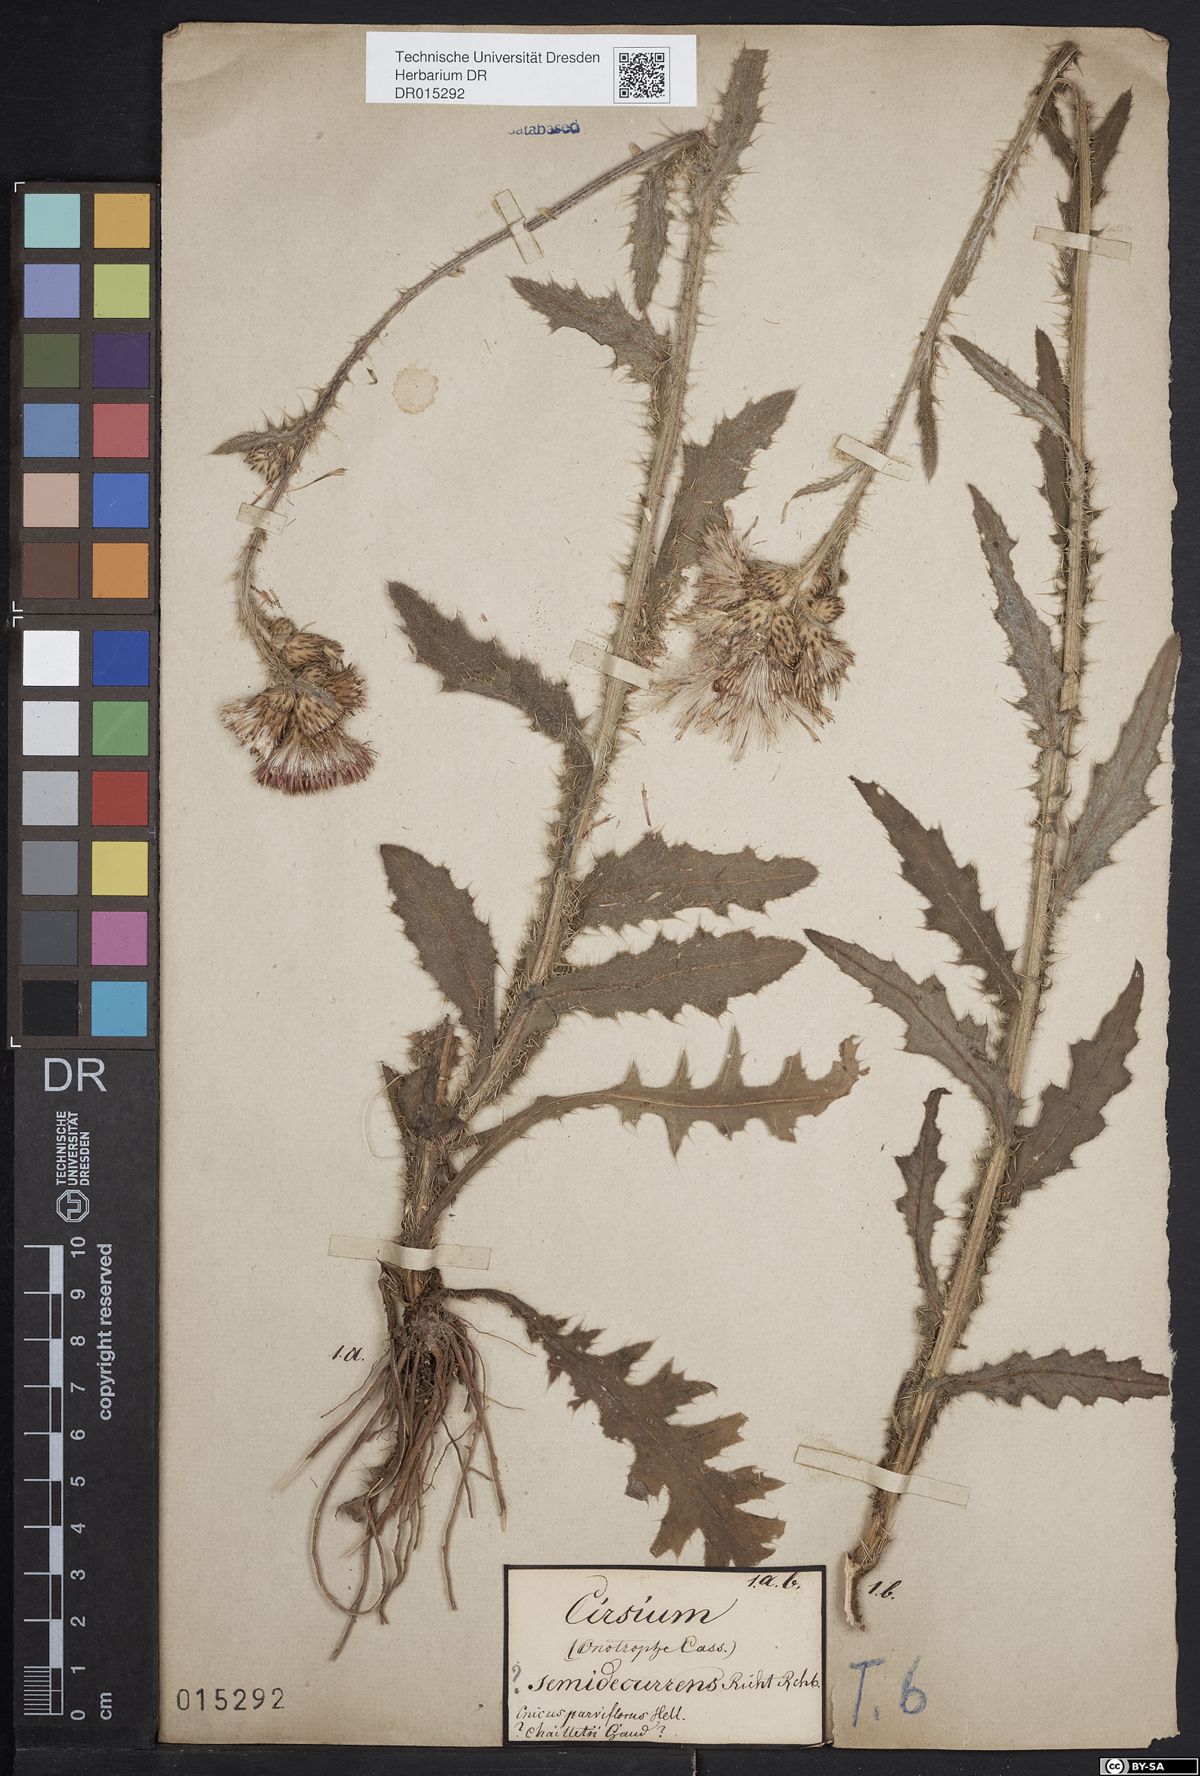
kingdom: Plantae
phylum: Tracheophyta
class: Magnoliopsida
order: Asterales
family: Asteraceae
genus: Cirsium
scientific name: Cirsium semidecurrens
